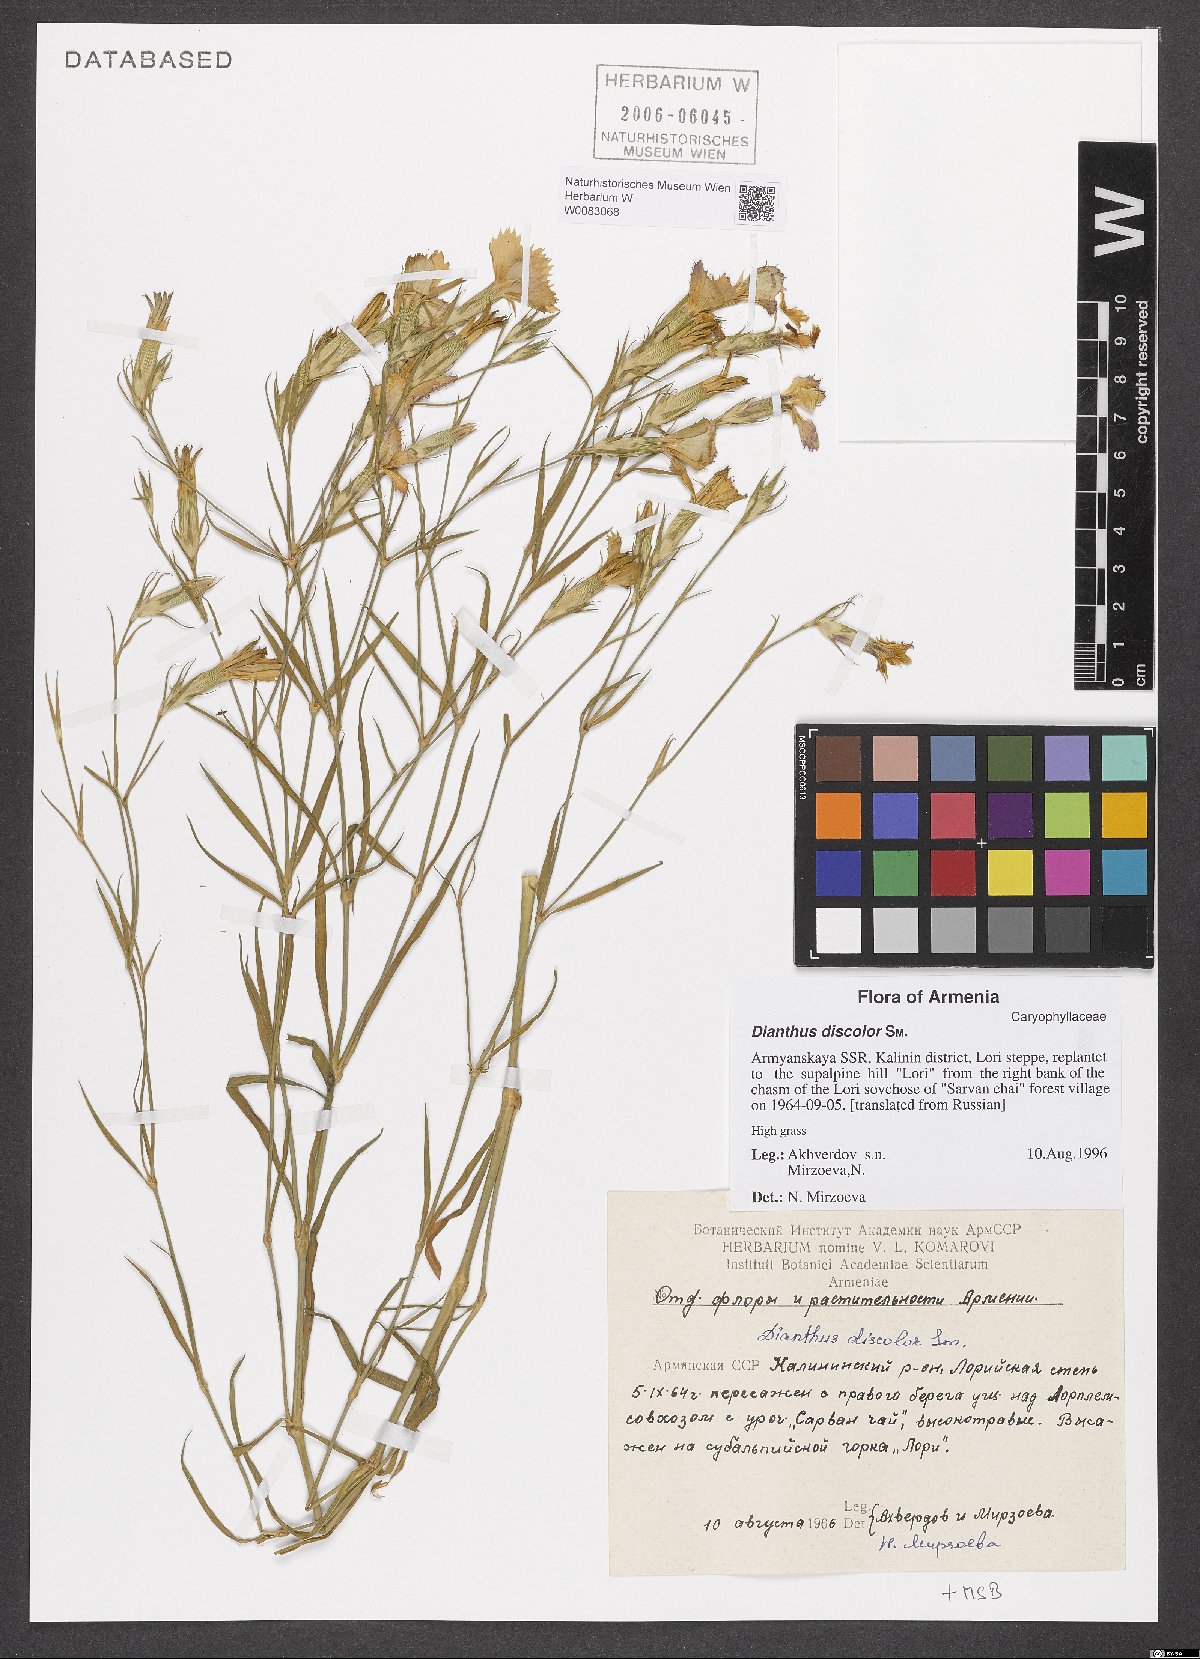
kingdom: Plantae
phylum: Tracheophyta
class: Magnoliopsida
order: Caryophyllales
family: Caryophyllaceae
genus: Dianthus
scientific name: Dianthus caucaseus
